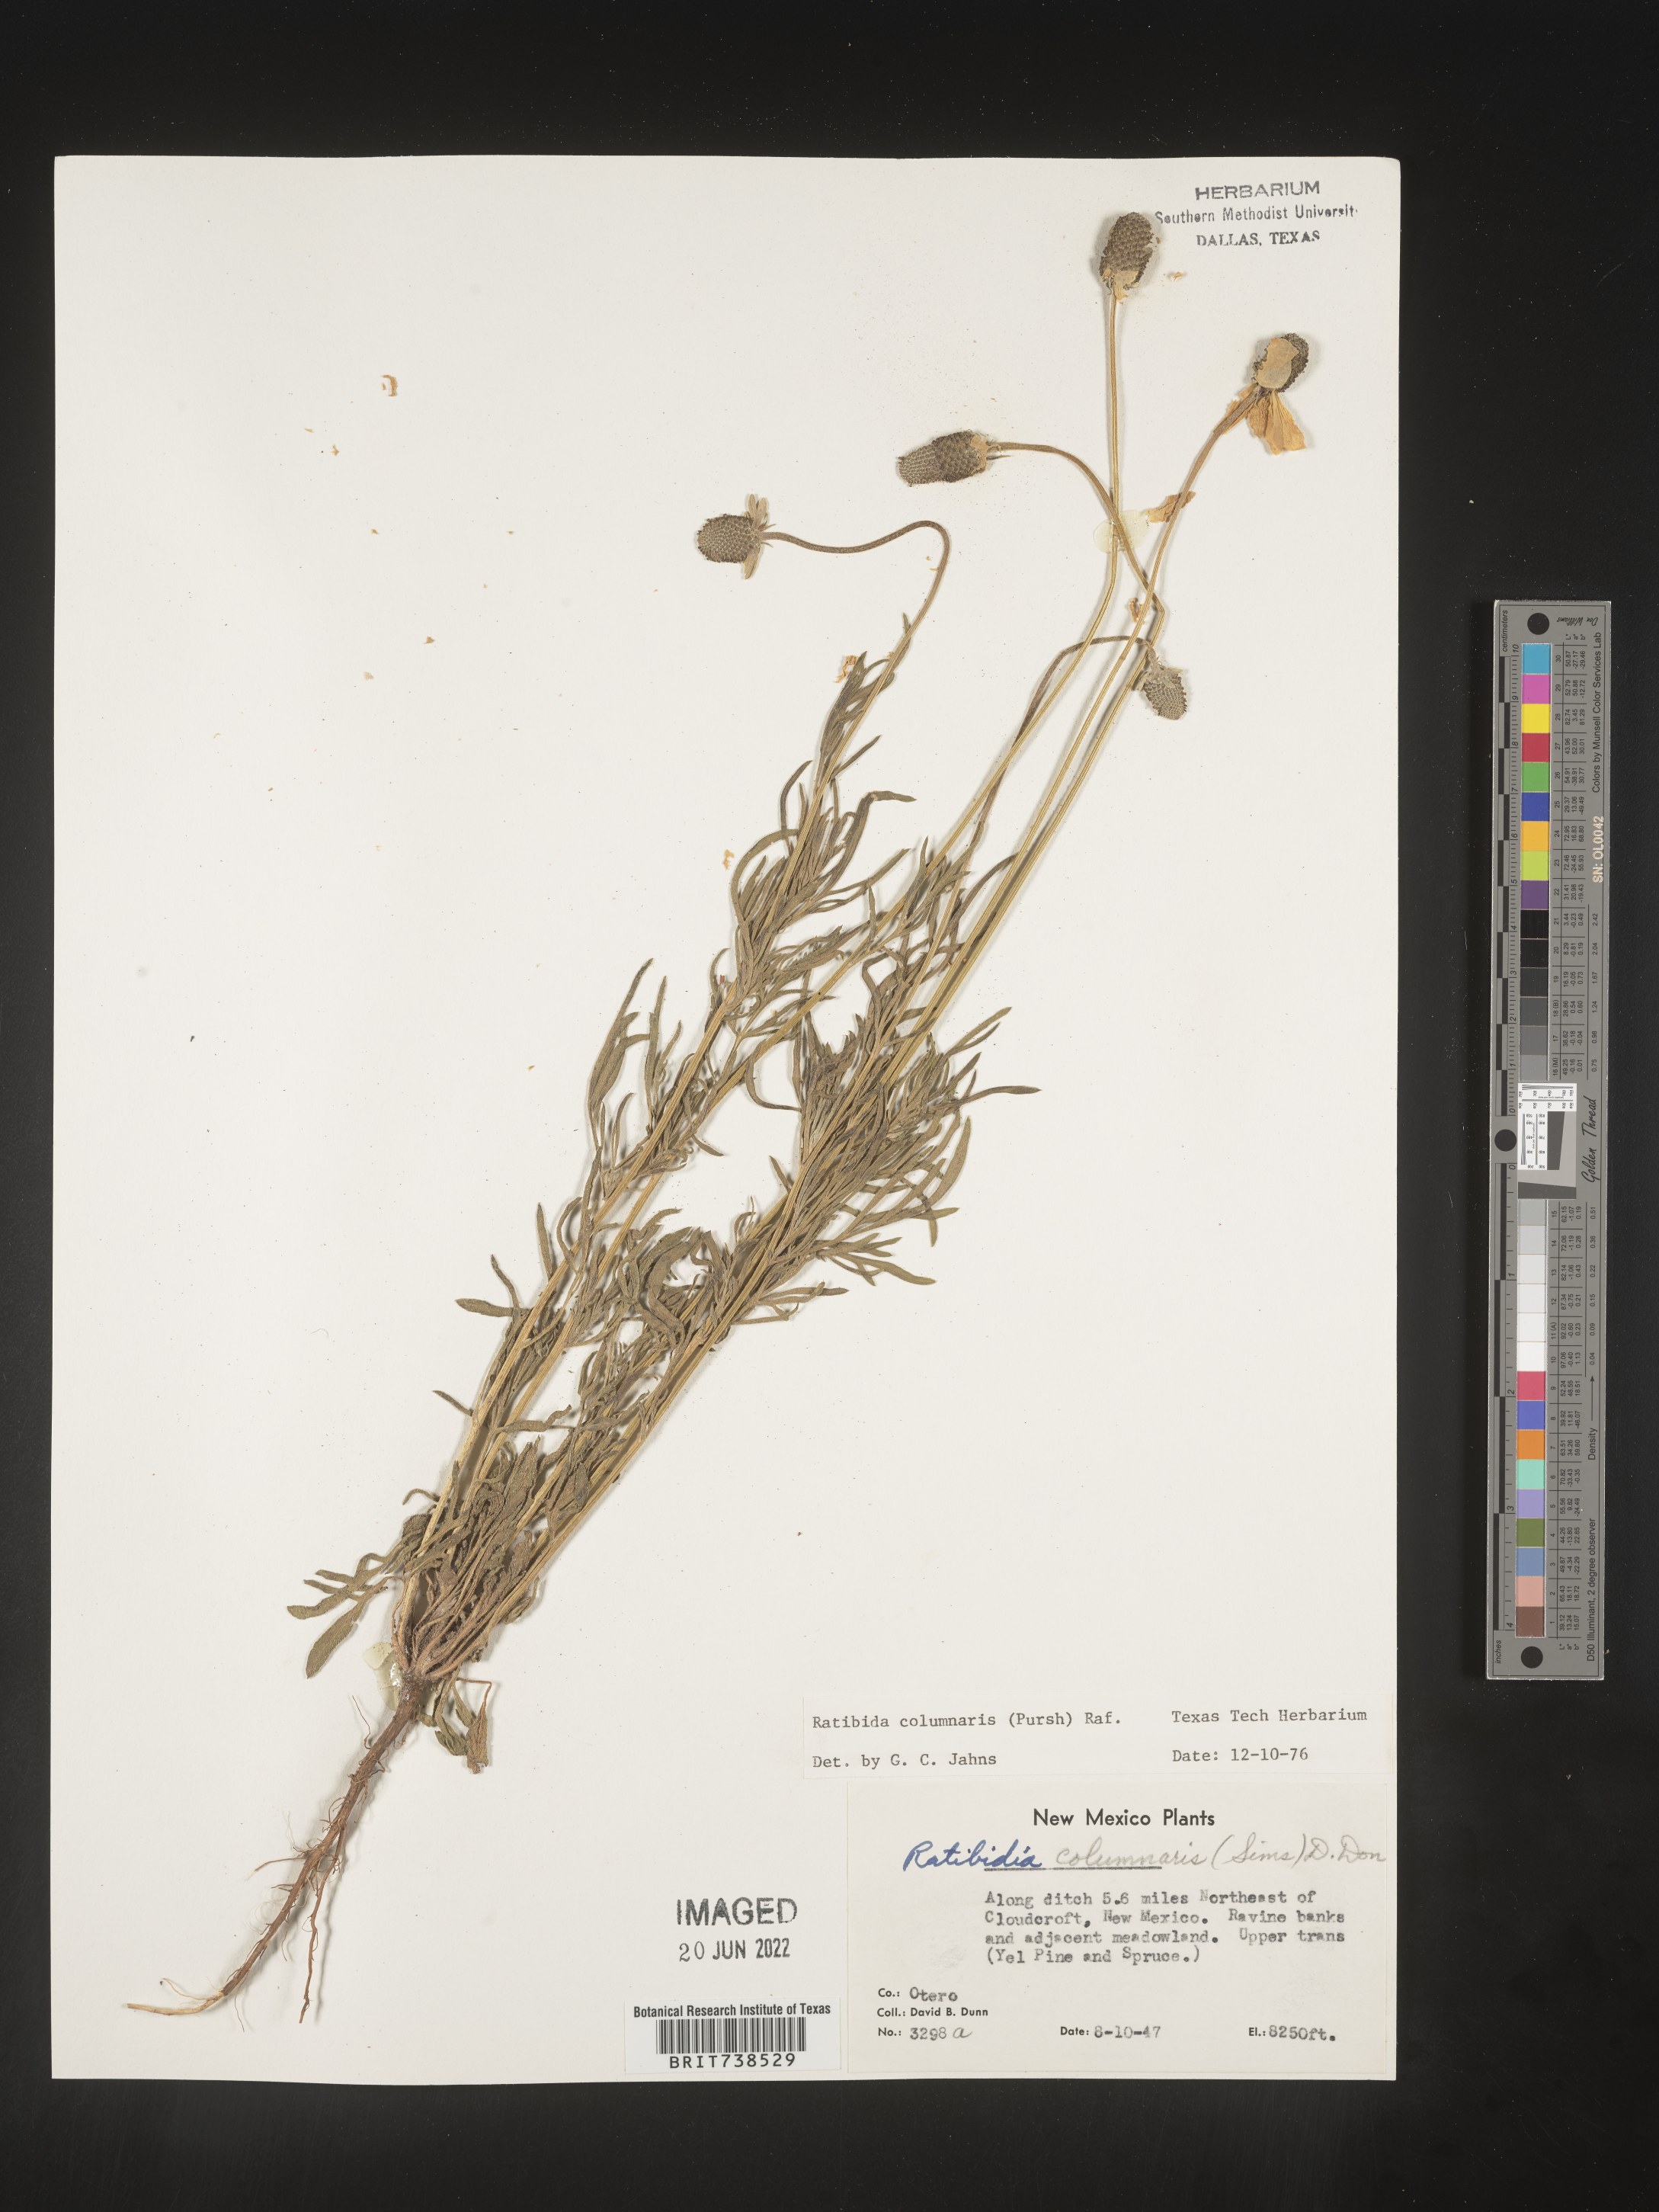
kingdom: Plantae
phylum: Tracheophyta
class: Magnoliopsida
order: Asterales
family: Asteraceae
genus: Ratibida
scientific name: Ratibida columnifera
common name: Prairie coneflower
